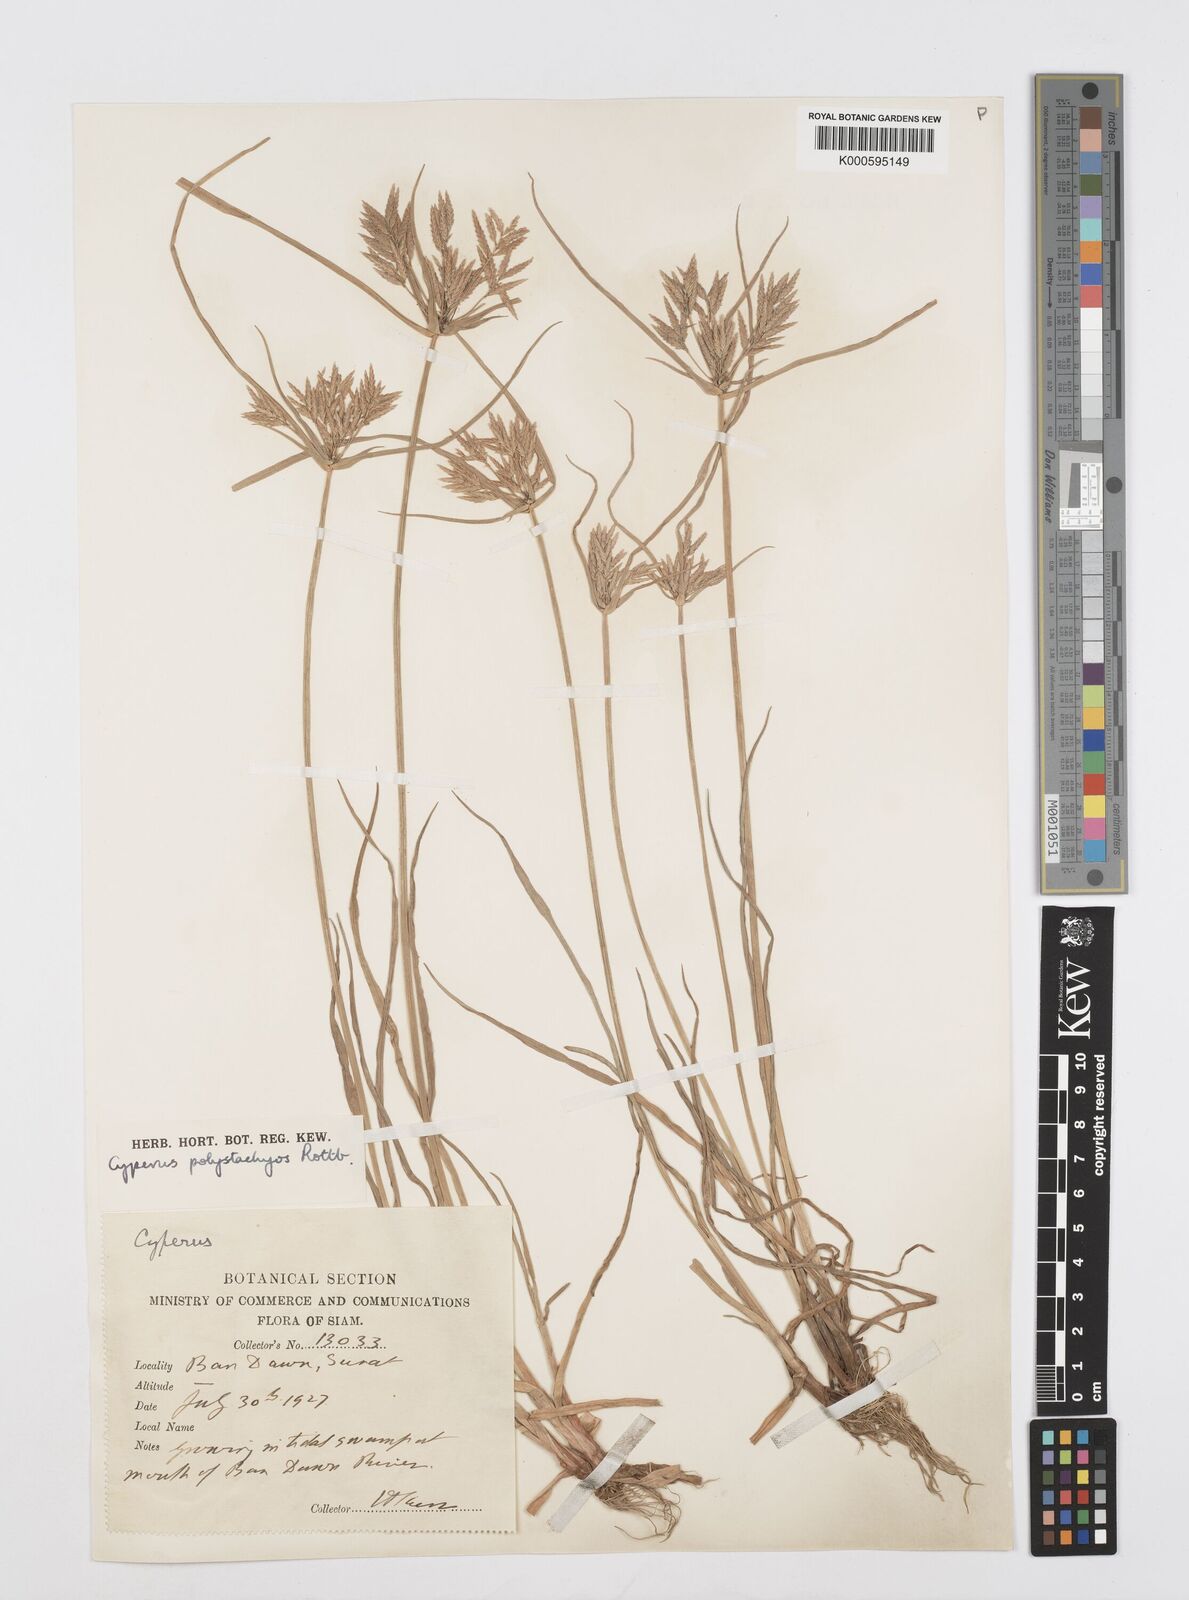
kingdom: Plantae
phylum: Tracheophyta
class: Liliopsida
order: Poales
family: Cyperaceae
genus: Cyperus
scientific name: Cyperus polystachyos
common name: Bunchy flat sedge
